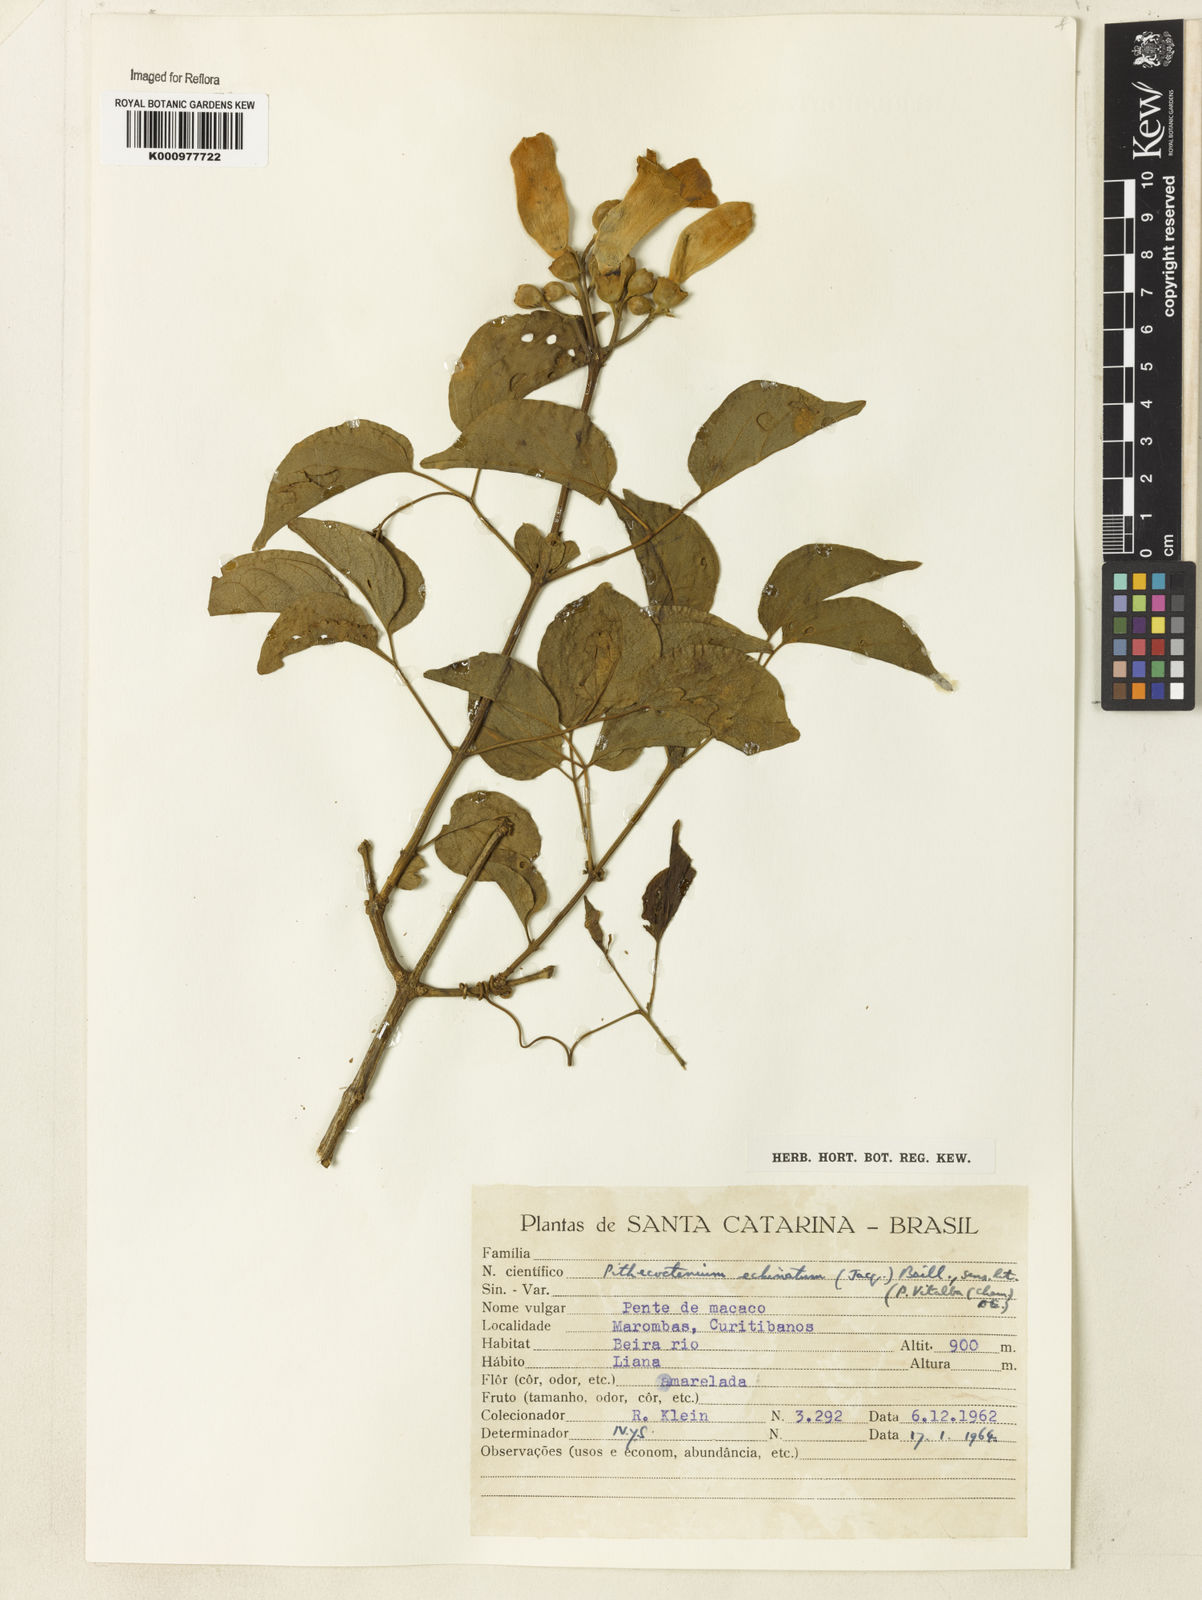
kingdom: Plantae
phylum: Tracheophyta
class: Magnoliopsida
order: Lamiales
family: Bignoniaceae
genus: Amphilophium
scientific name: Amphilophium crucigerum
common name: Monkey comb
